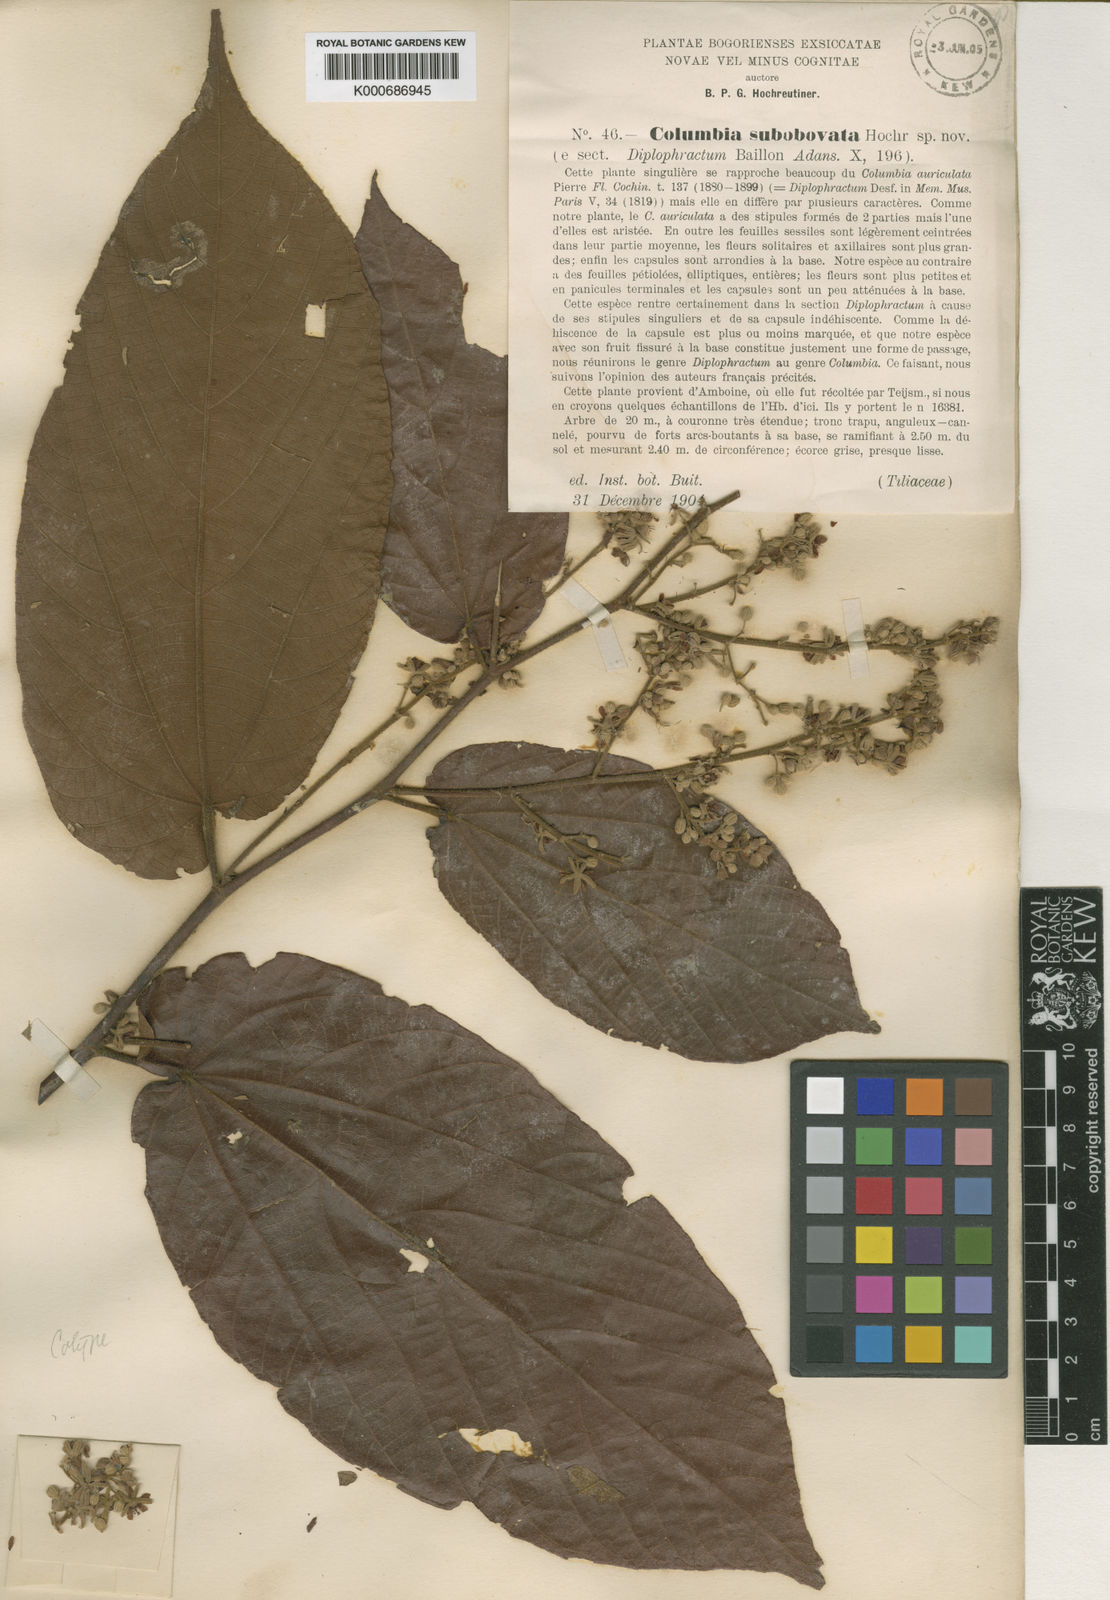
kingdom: Plantae
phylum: Tracheophyta
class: Magnoliopsida
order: Malvales
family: Malvaceae
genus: Colona
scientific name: Colona scabra
